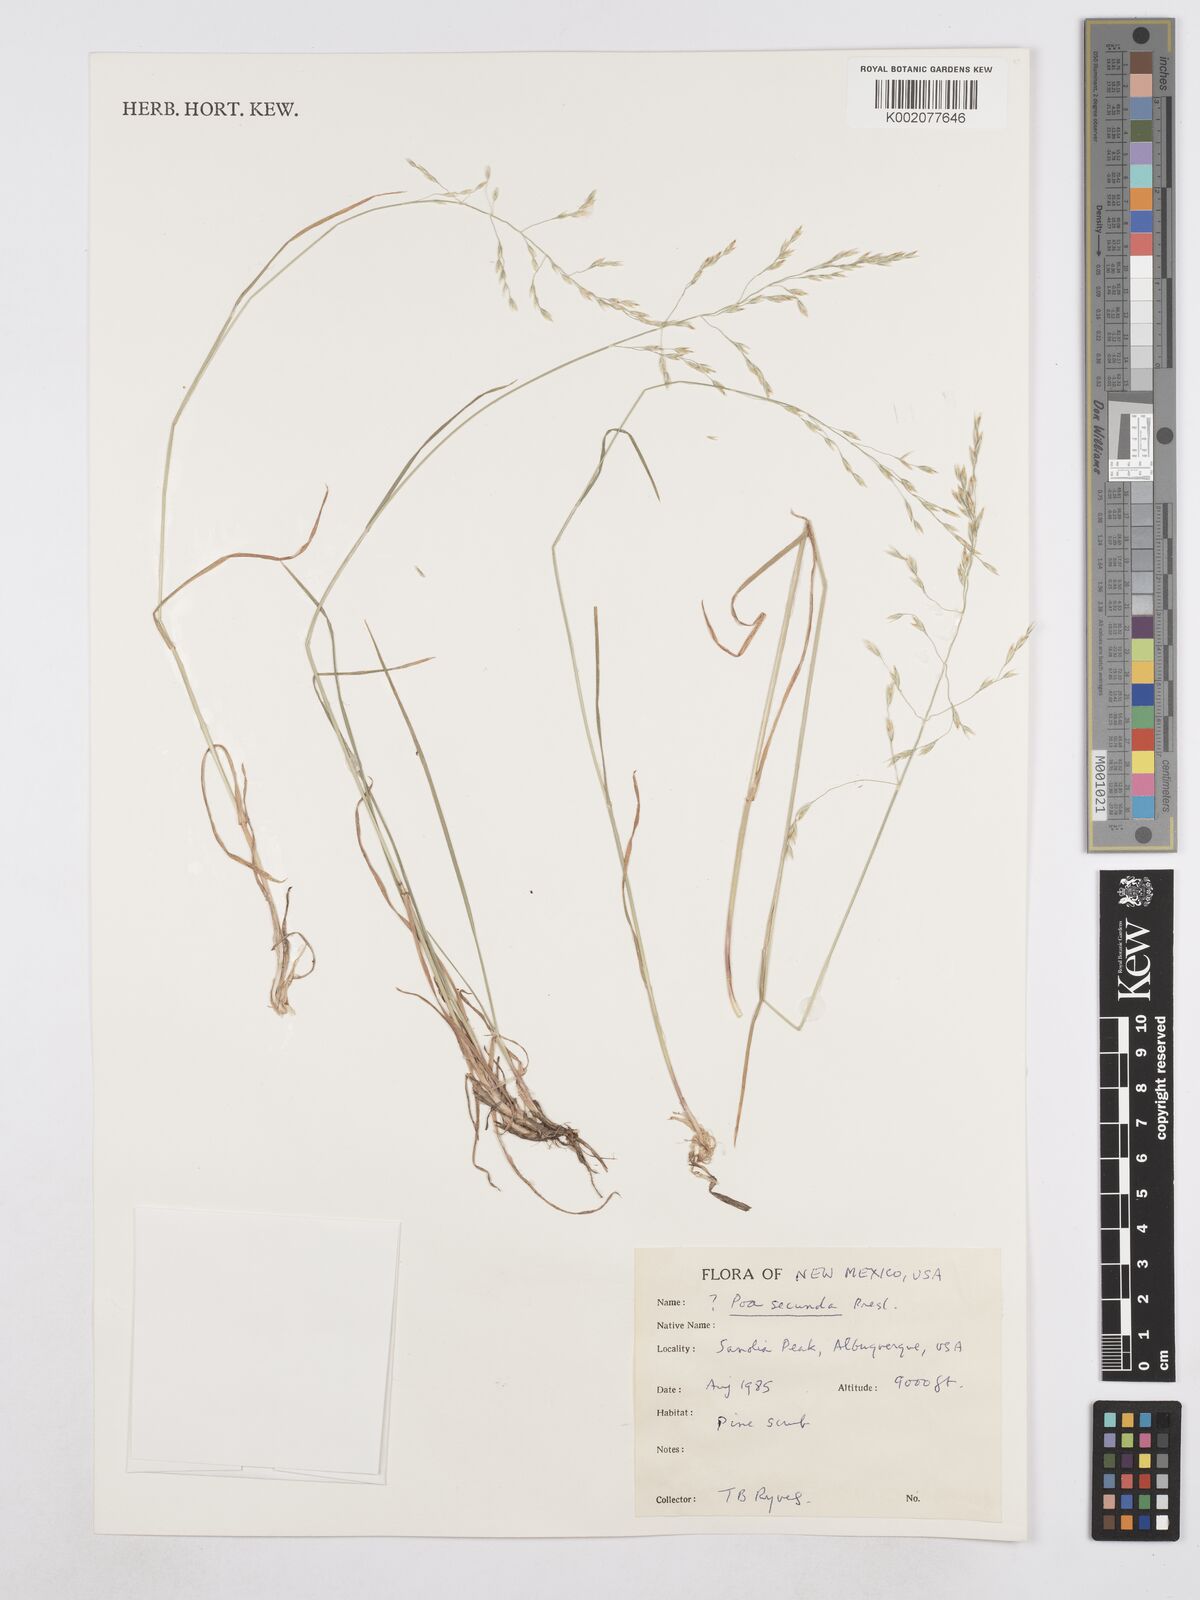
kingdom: Plantae
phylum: Tracheophyta
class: Liliopsida
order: Poales
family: Poaceae
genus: Poa
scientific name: Poa secunda
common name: Sandberg bluegrass
